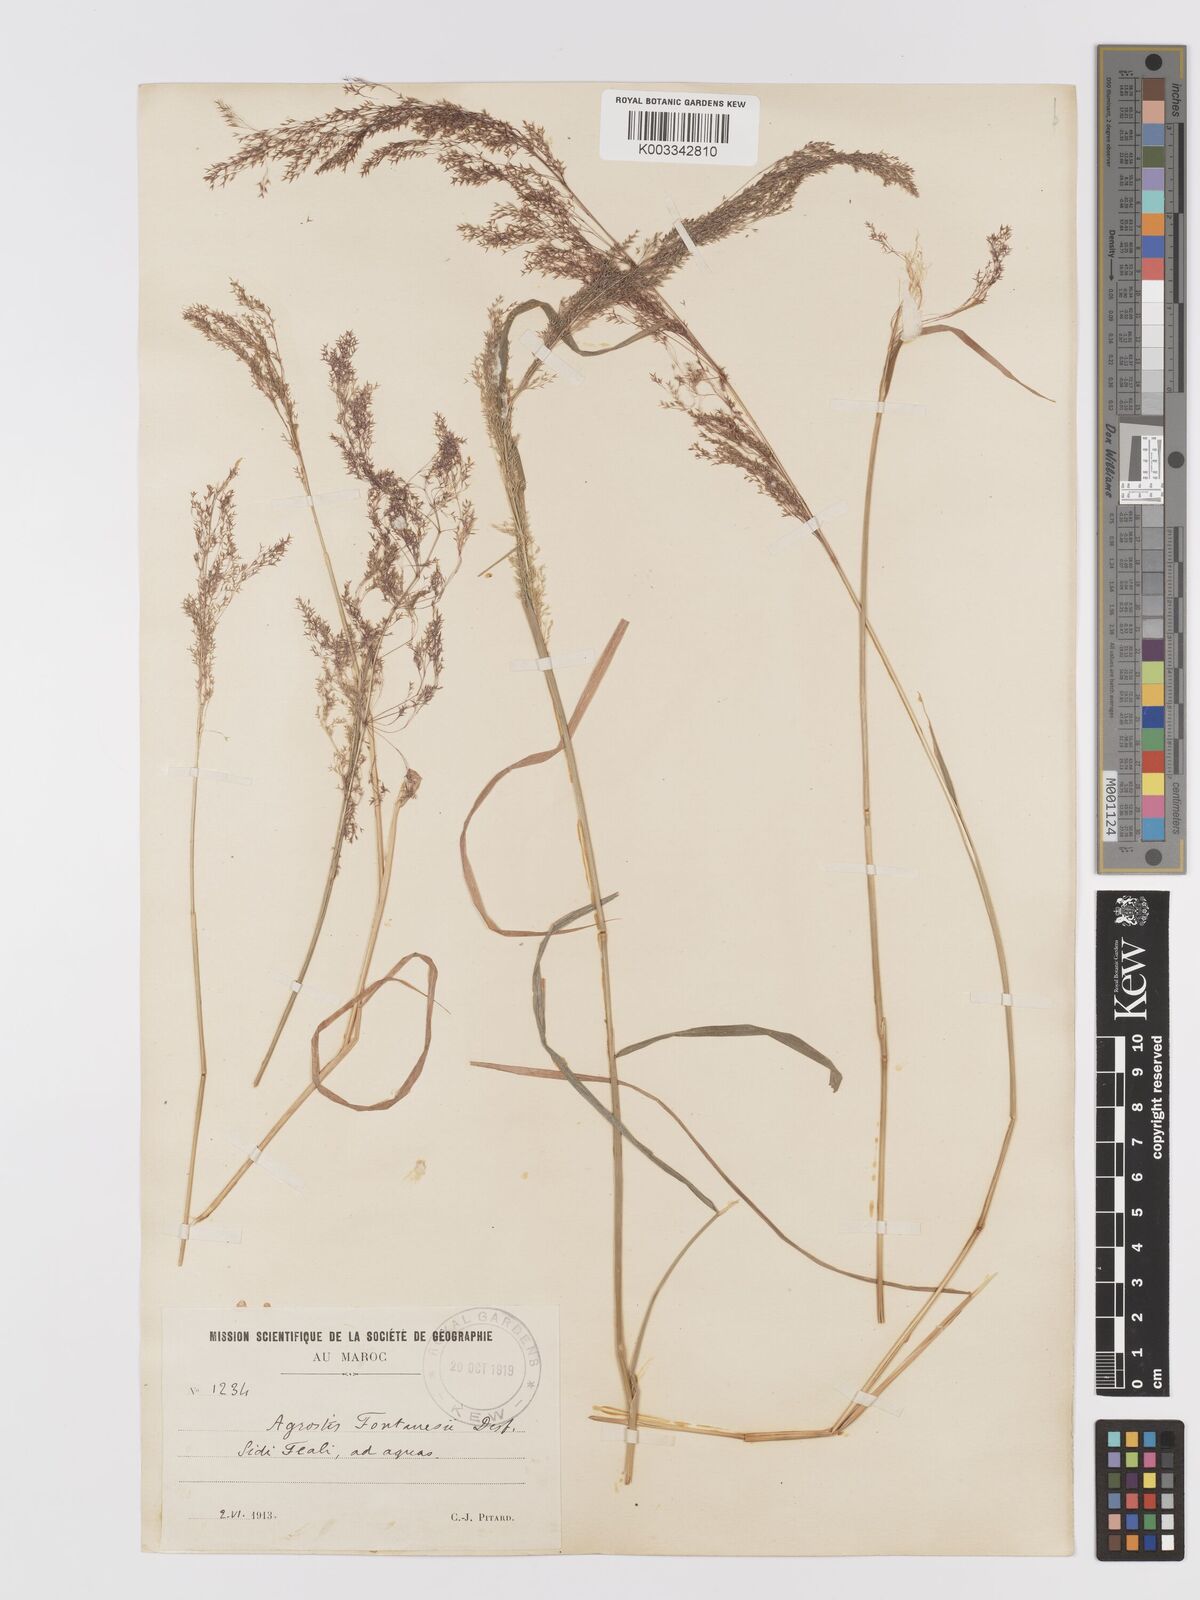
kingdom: Plantae
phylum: Tracheophyta
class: Liliopsida
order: Poales
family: Poaceae
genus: Agrostis
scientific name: Agrostis reuteri
